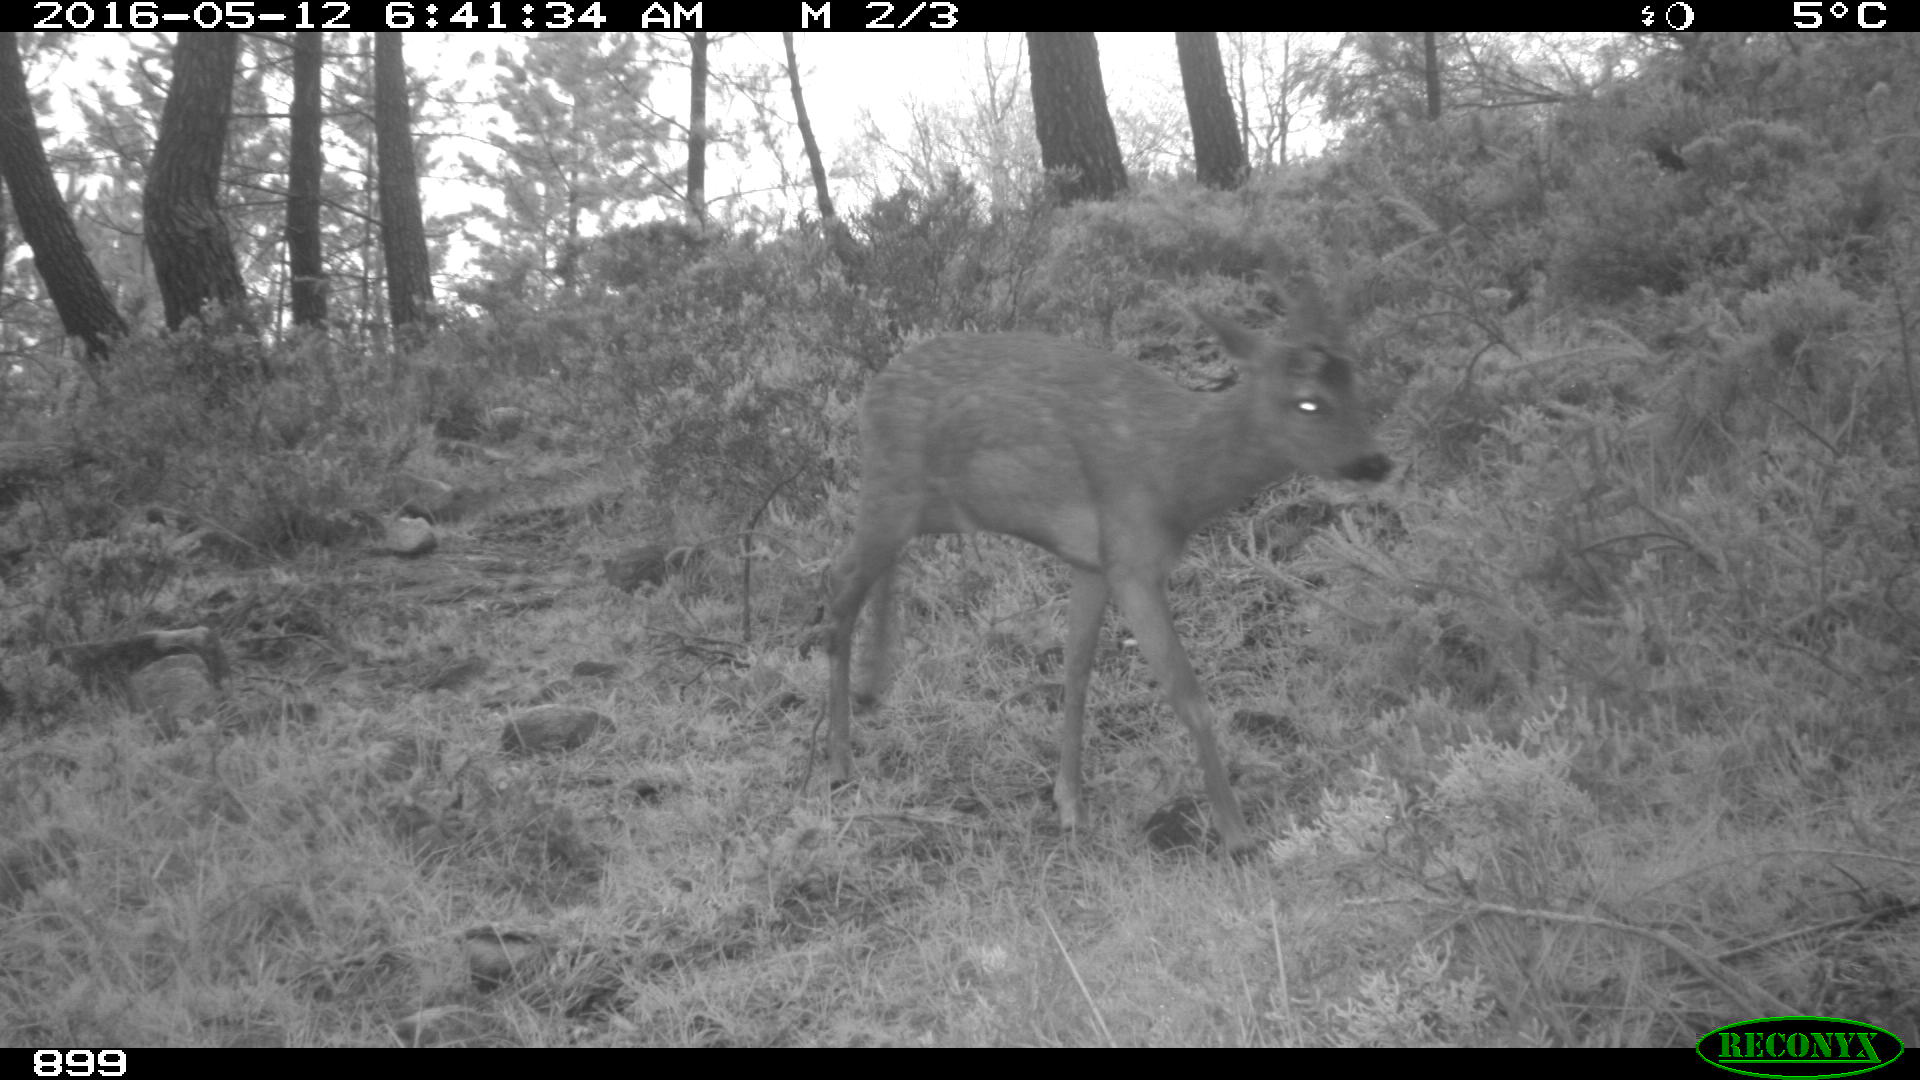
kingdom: Animalia
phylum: Chordata
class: Mammalia
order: Artiodactyla
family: Cervidae
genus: Capreolus
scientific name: Capreolus capreolus
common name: Western roe deer
